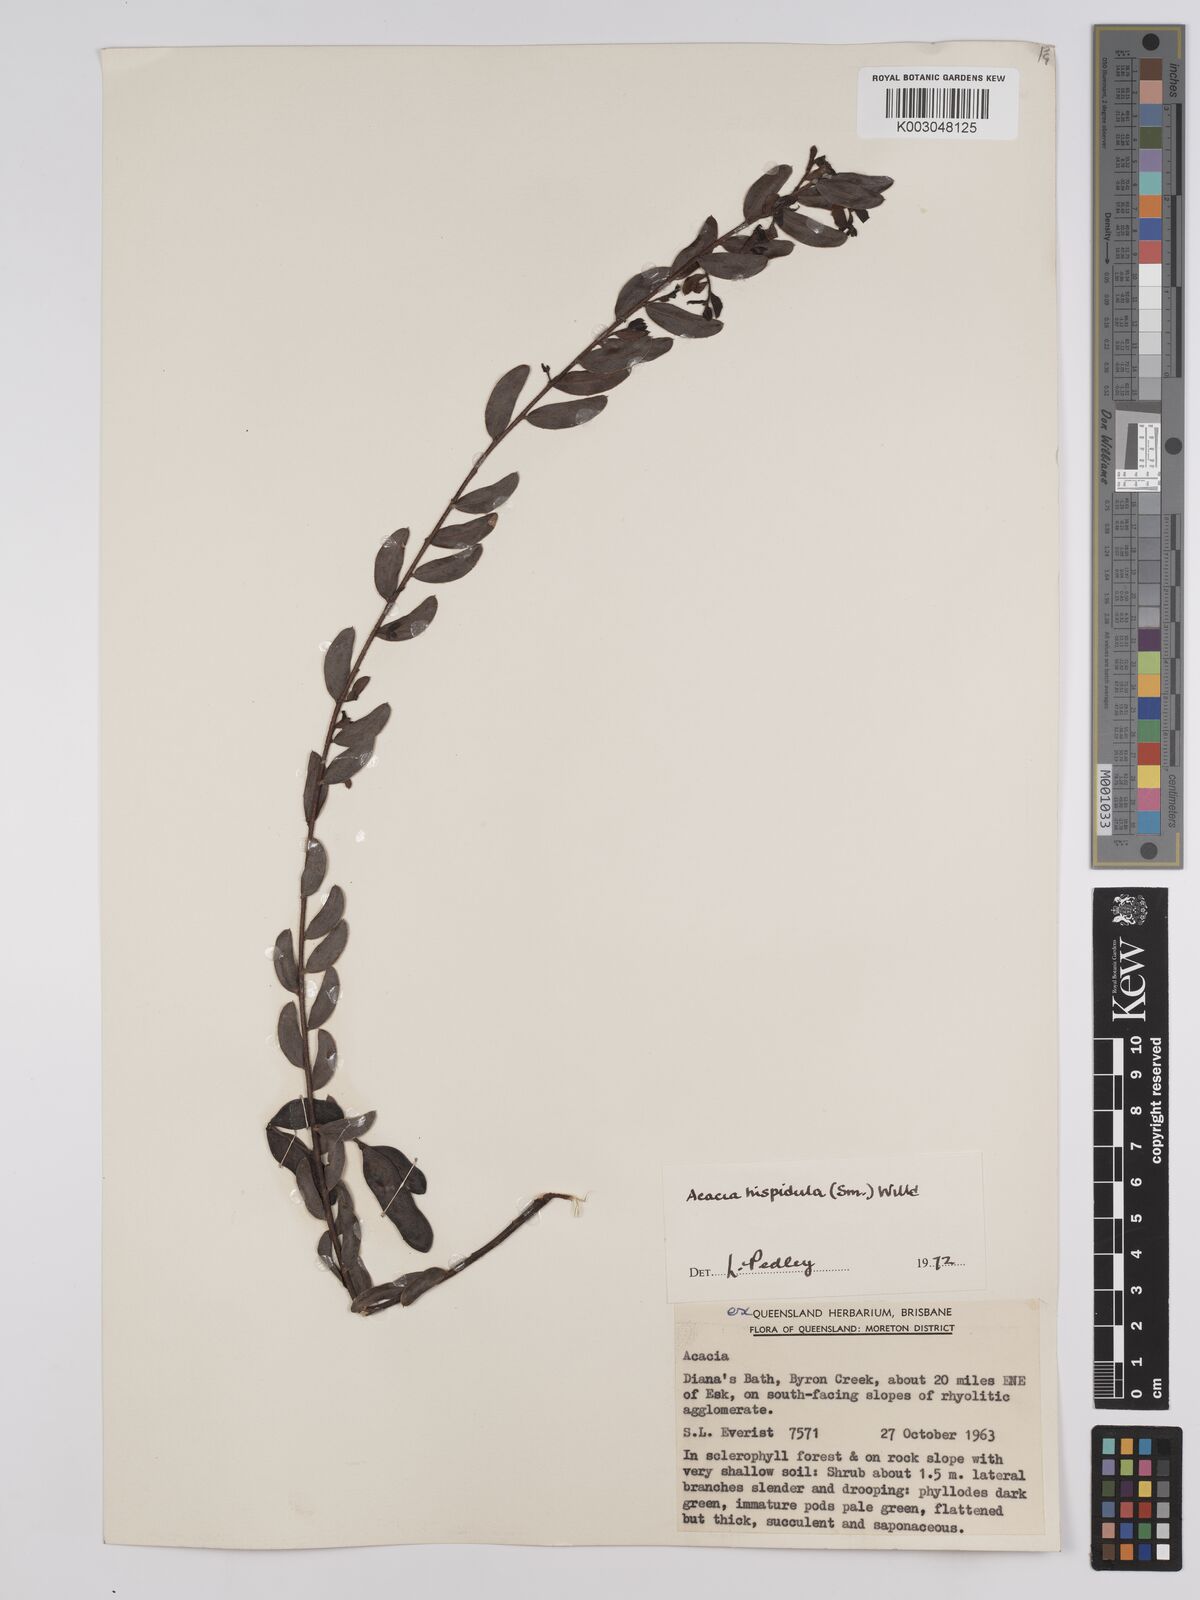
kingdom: Plantae
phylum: Tracheophyta
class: Magnoliopsida
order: Fabales
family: Fabaceae
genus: Acacia
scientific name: Acacia hispidula
